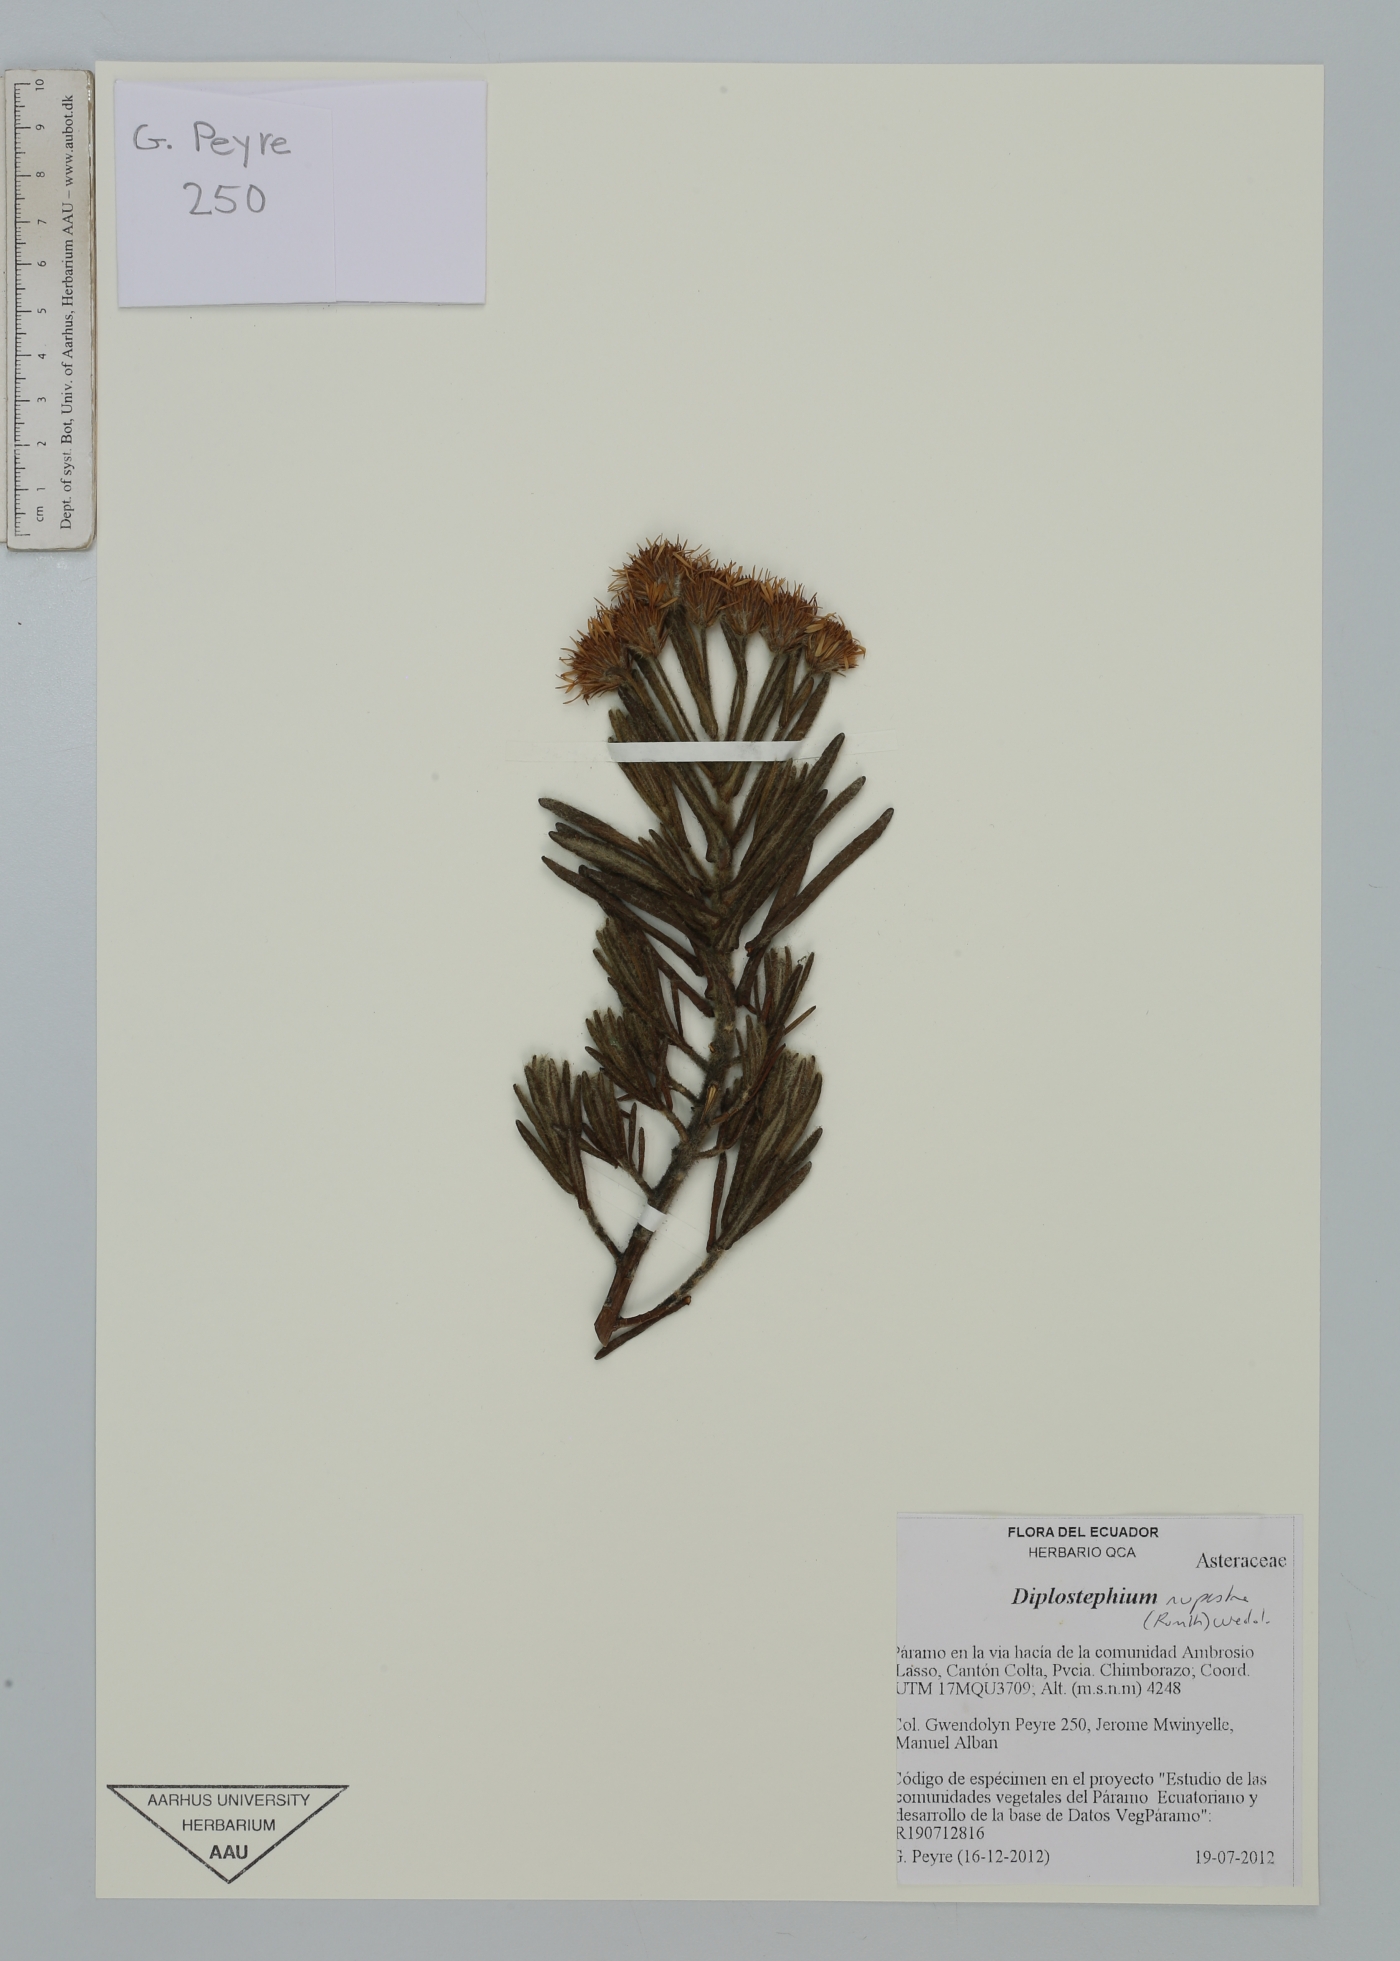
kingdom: Plantae
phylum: Tracheophyta
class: Magnoliopsida
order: Asterales
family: Asteraceae
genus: Linochilus
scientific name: Linochilus rupestris
